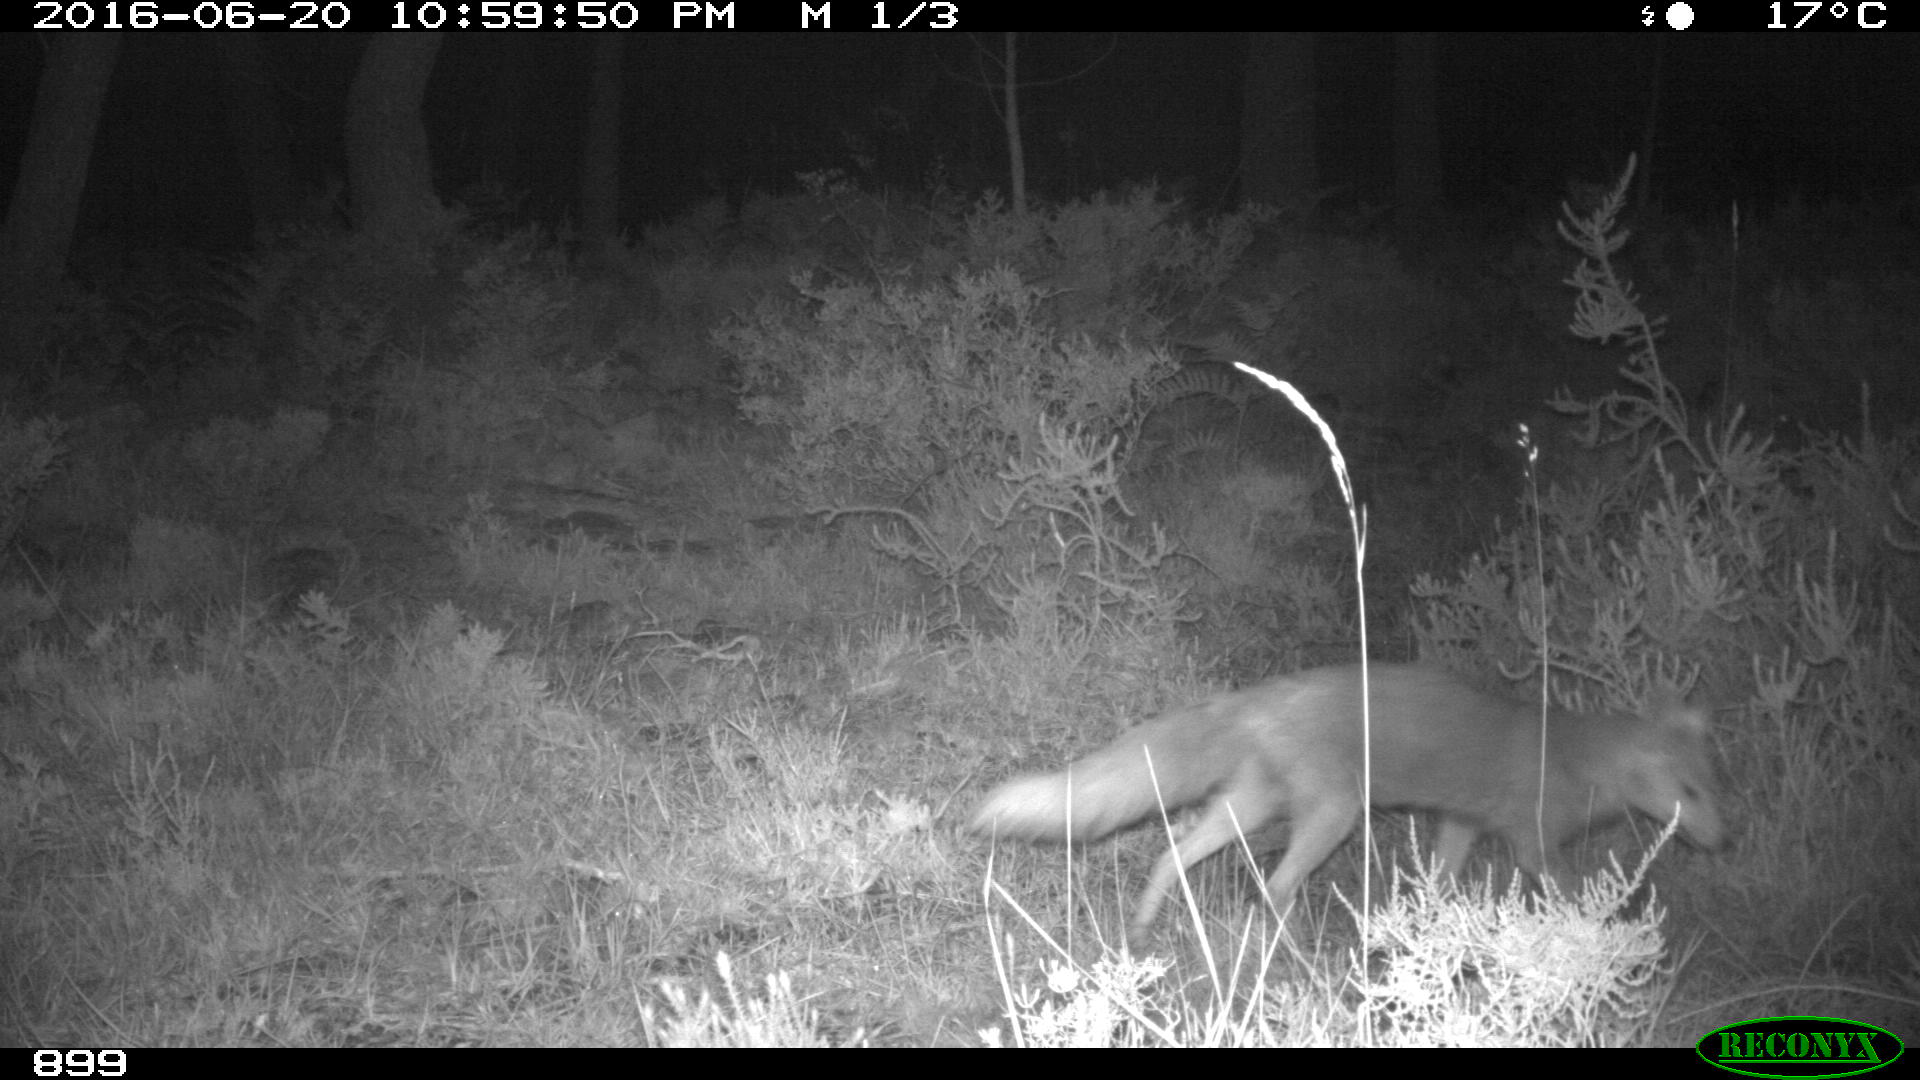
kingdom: Animalia
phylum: Chordata
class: Mammalia
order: Carnivora
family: Canidae
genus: Vulpes
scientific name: Vulpes vulpes
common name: Red fox
